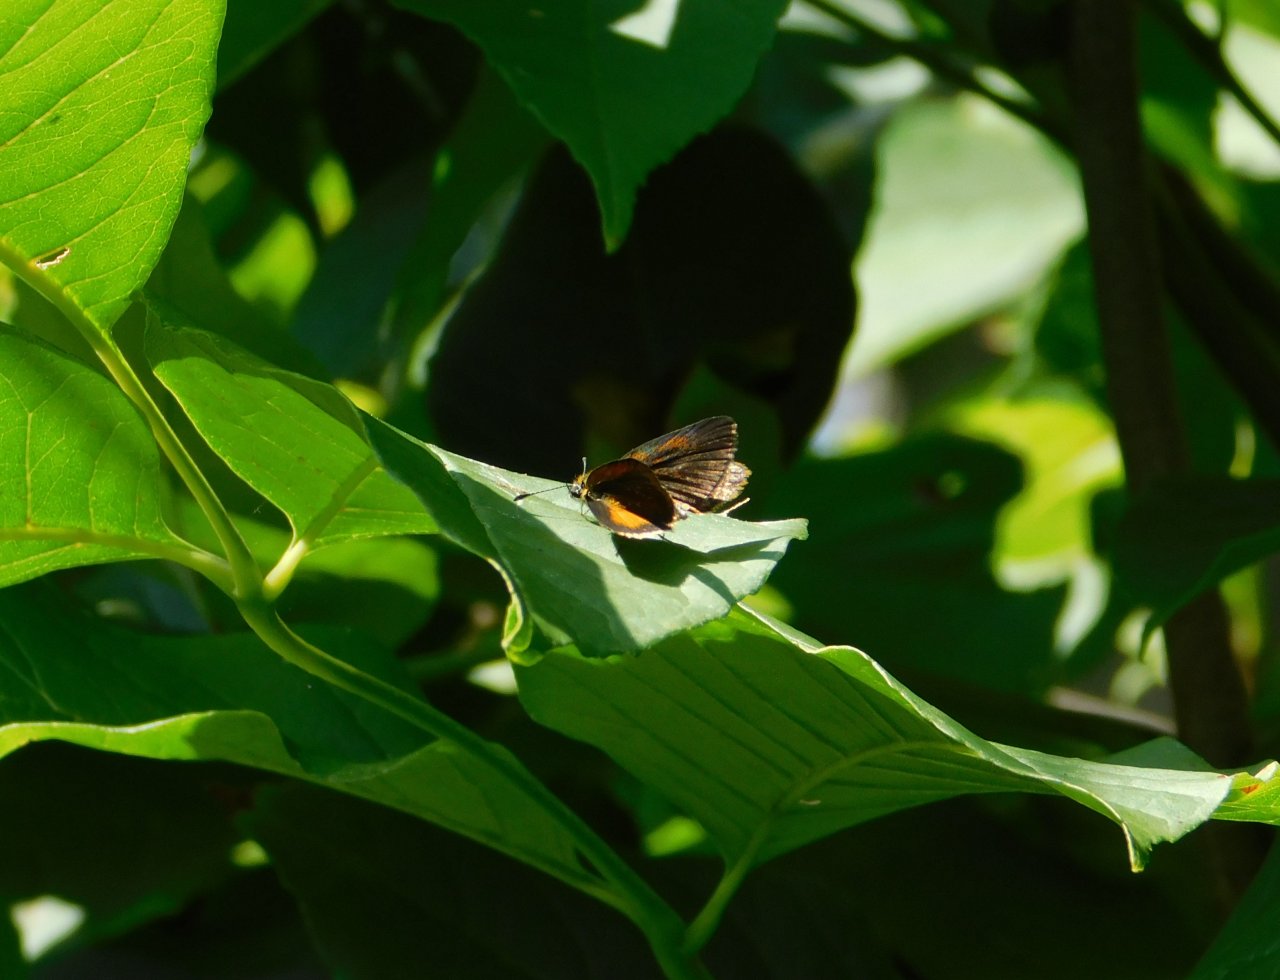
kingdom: Animalia
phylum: Arthropoda
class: Insecta
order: Lepidoptera
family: Hesperiidae
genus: Ancyloxypha
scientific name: Ancyloxypha numitor
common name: Least Skipper
